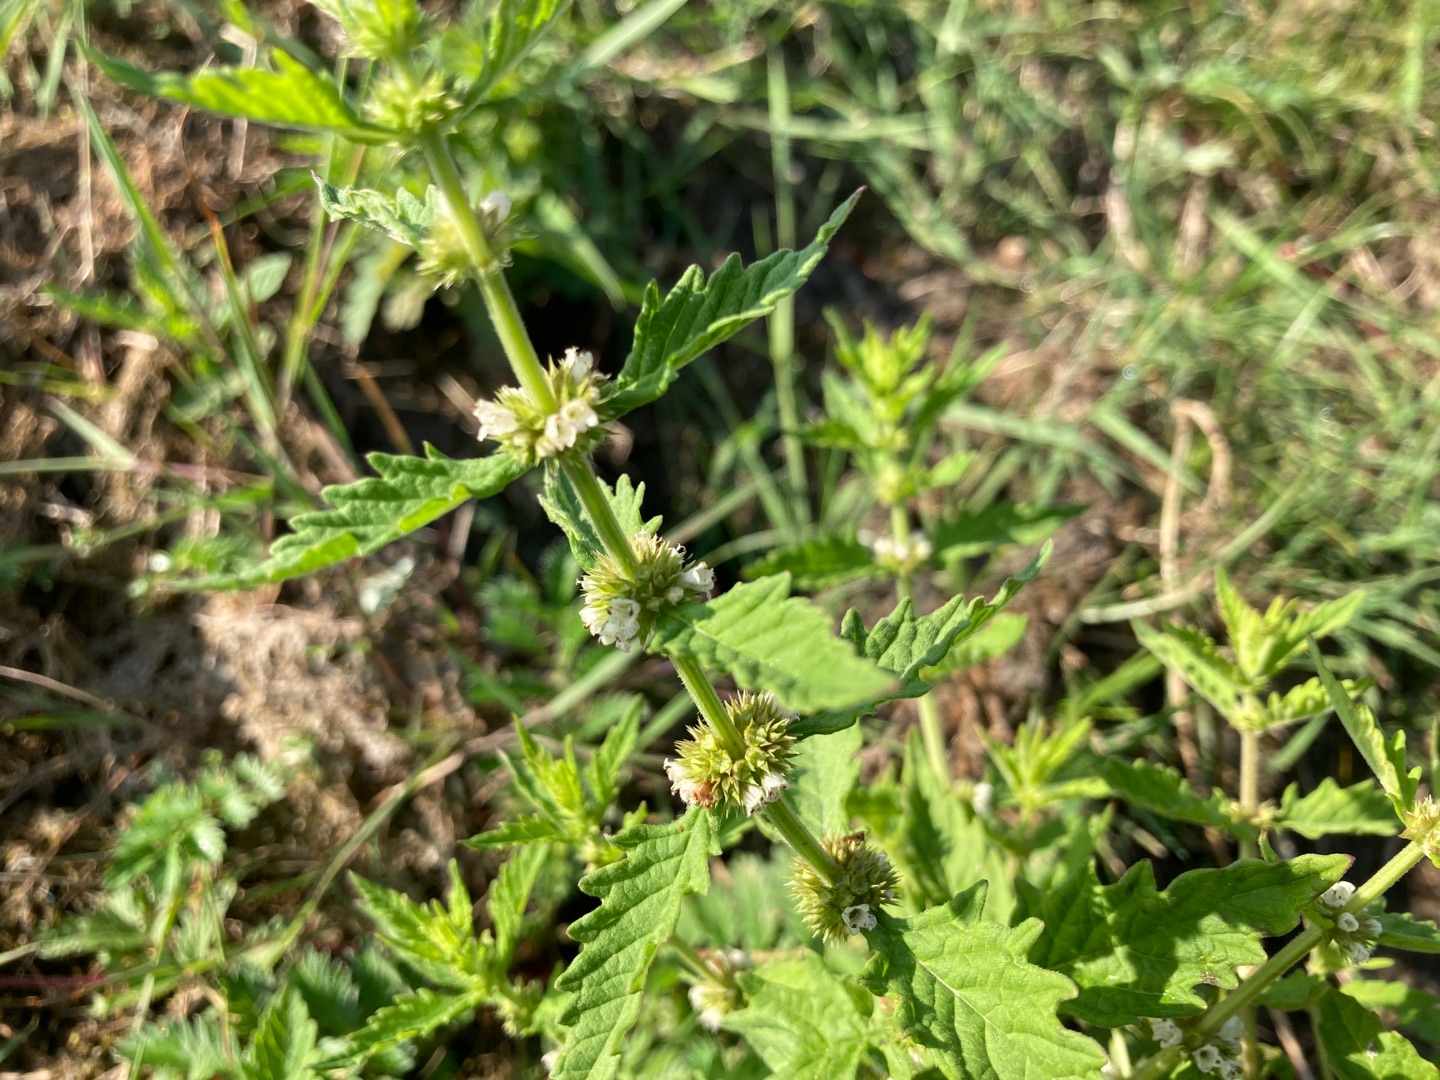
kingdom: Plantae
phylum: Tracheophyta
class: Magnoliopsida
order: Lamiales
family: Lamiaceae
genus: Lycopus
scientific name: Lycopus europaeus
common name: Sværtevæld
